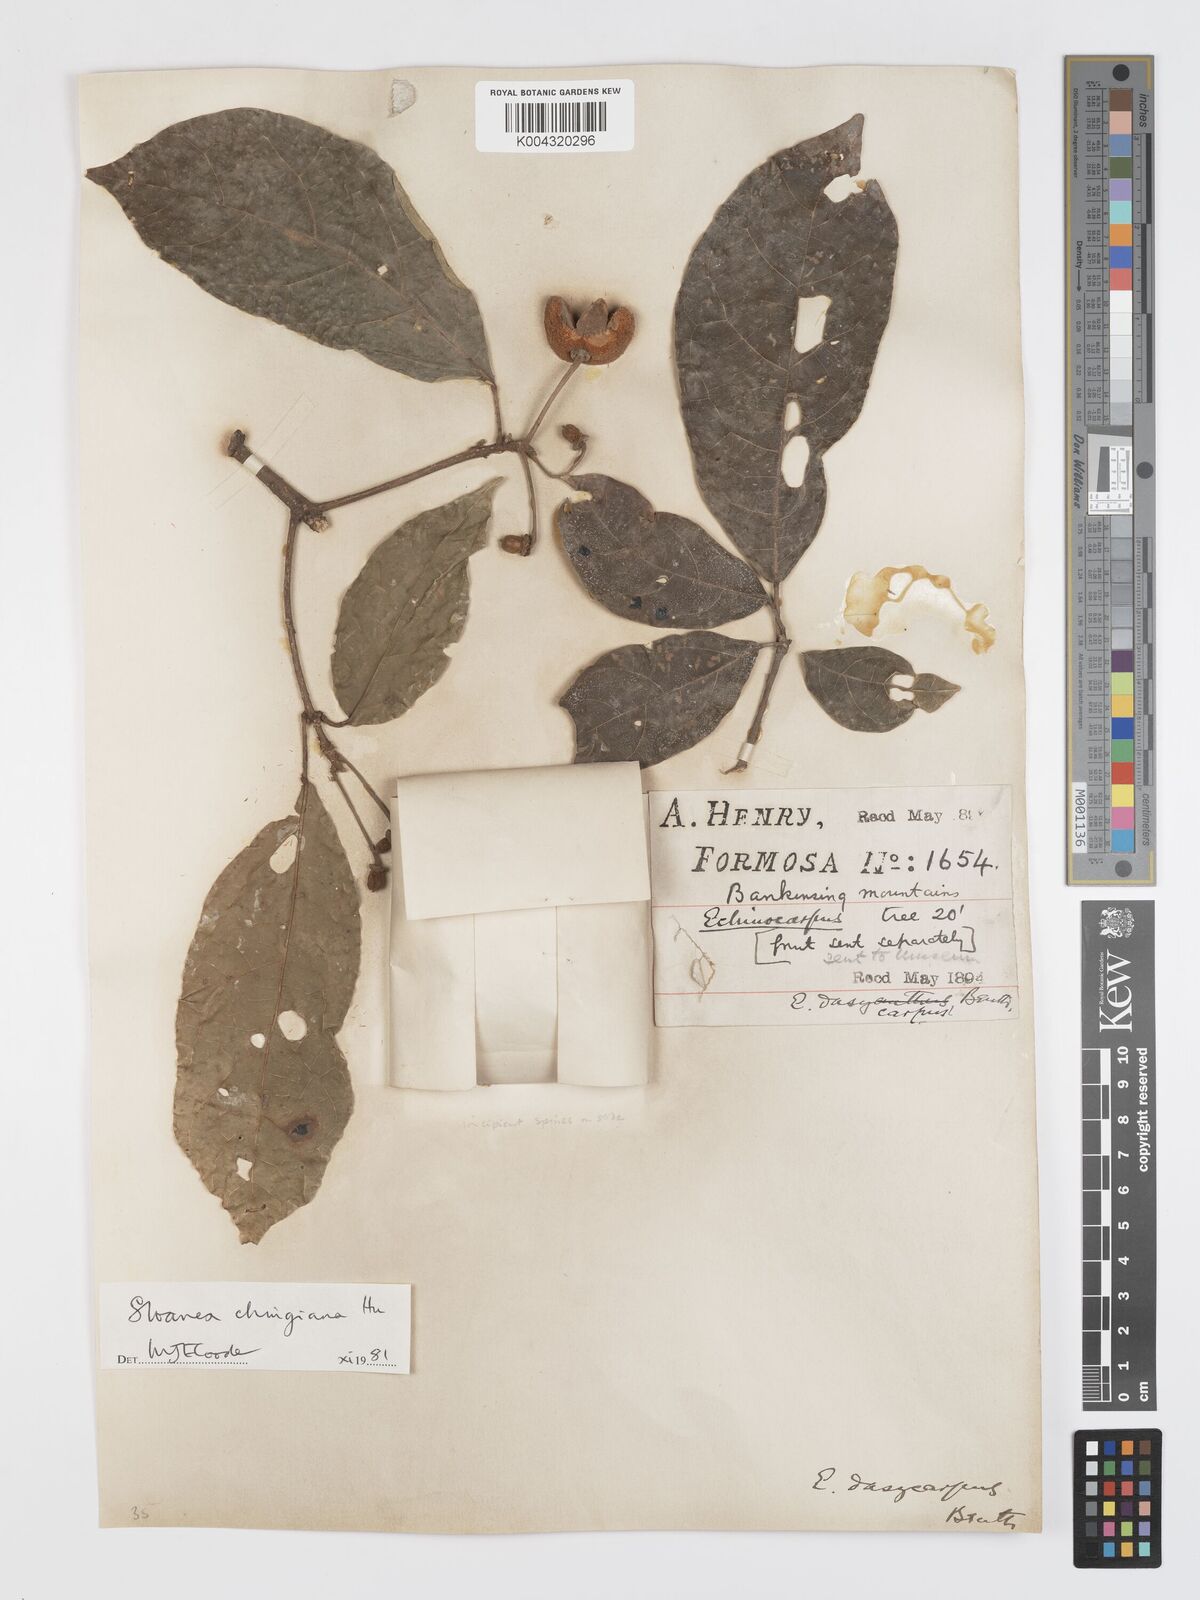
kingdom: Plantae
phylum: Tracheophyta
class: Magnoliopsida
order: Oxalidales
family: Elaeocarpaceae
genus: Sloanea
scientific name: Sloanea chingiana
